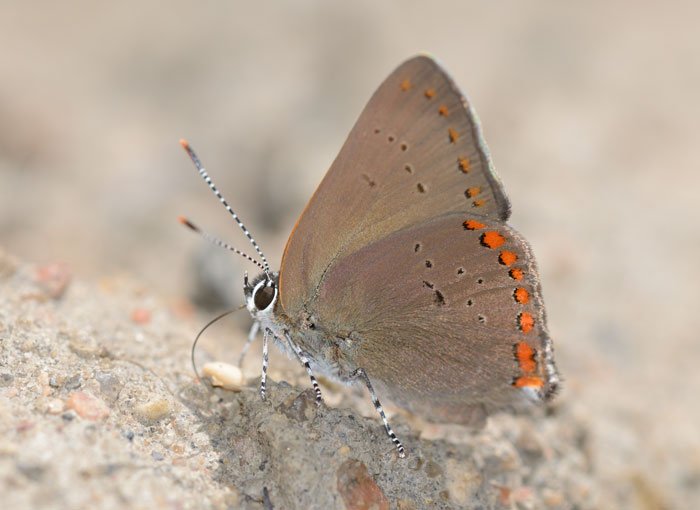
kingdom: Animalia
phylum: Arthropoda
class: Insecta
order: Lepidoptera
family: Lycaenidae
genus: Harkenclenus
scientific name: Harkenclenus titus
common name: Coral Hairstreak
